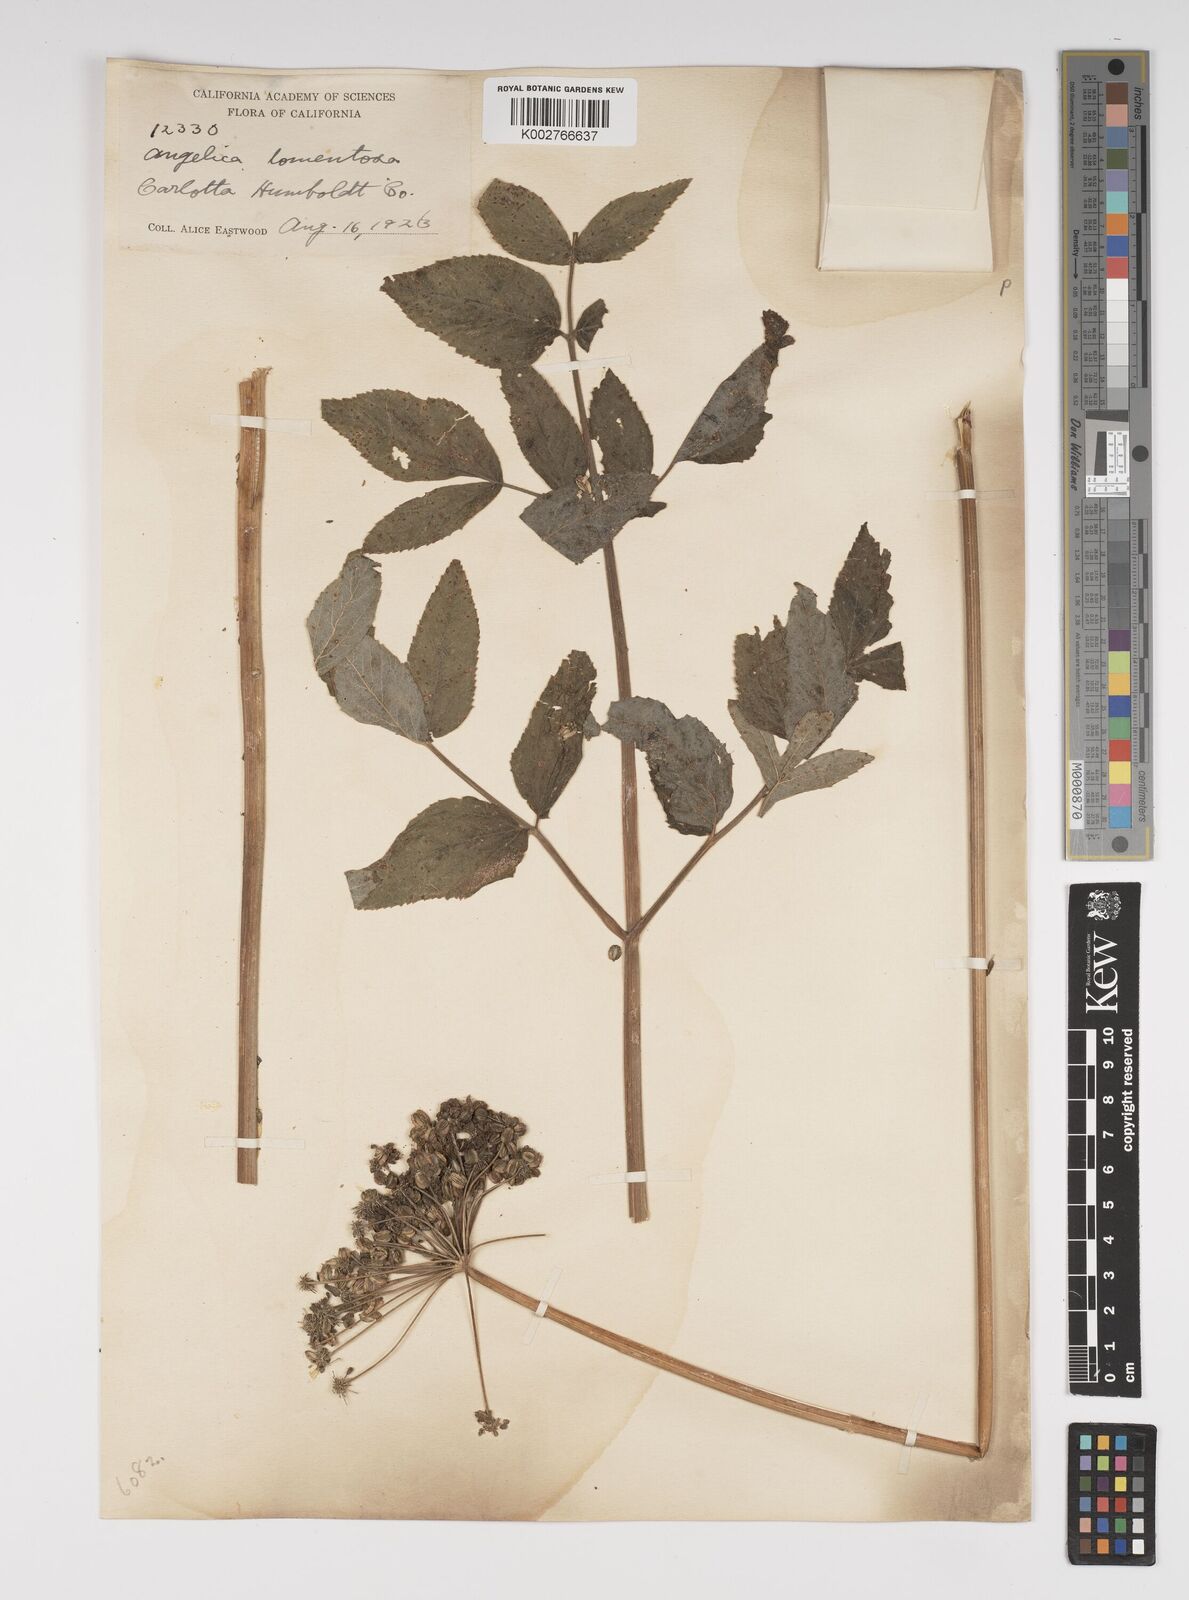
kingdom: Plantae
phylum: Tracheophyta
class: Magnoliopsida
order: Apiales
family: Apiaceae
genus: Angelica
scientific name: Angelica tomentosa
